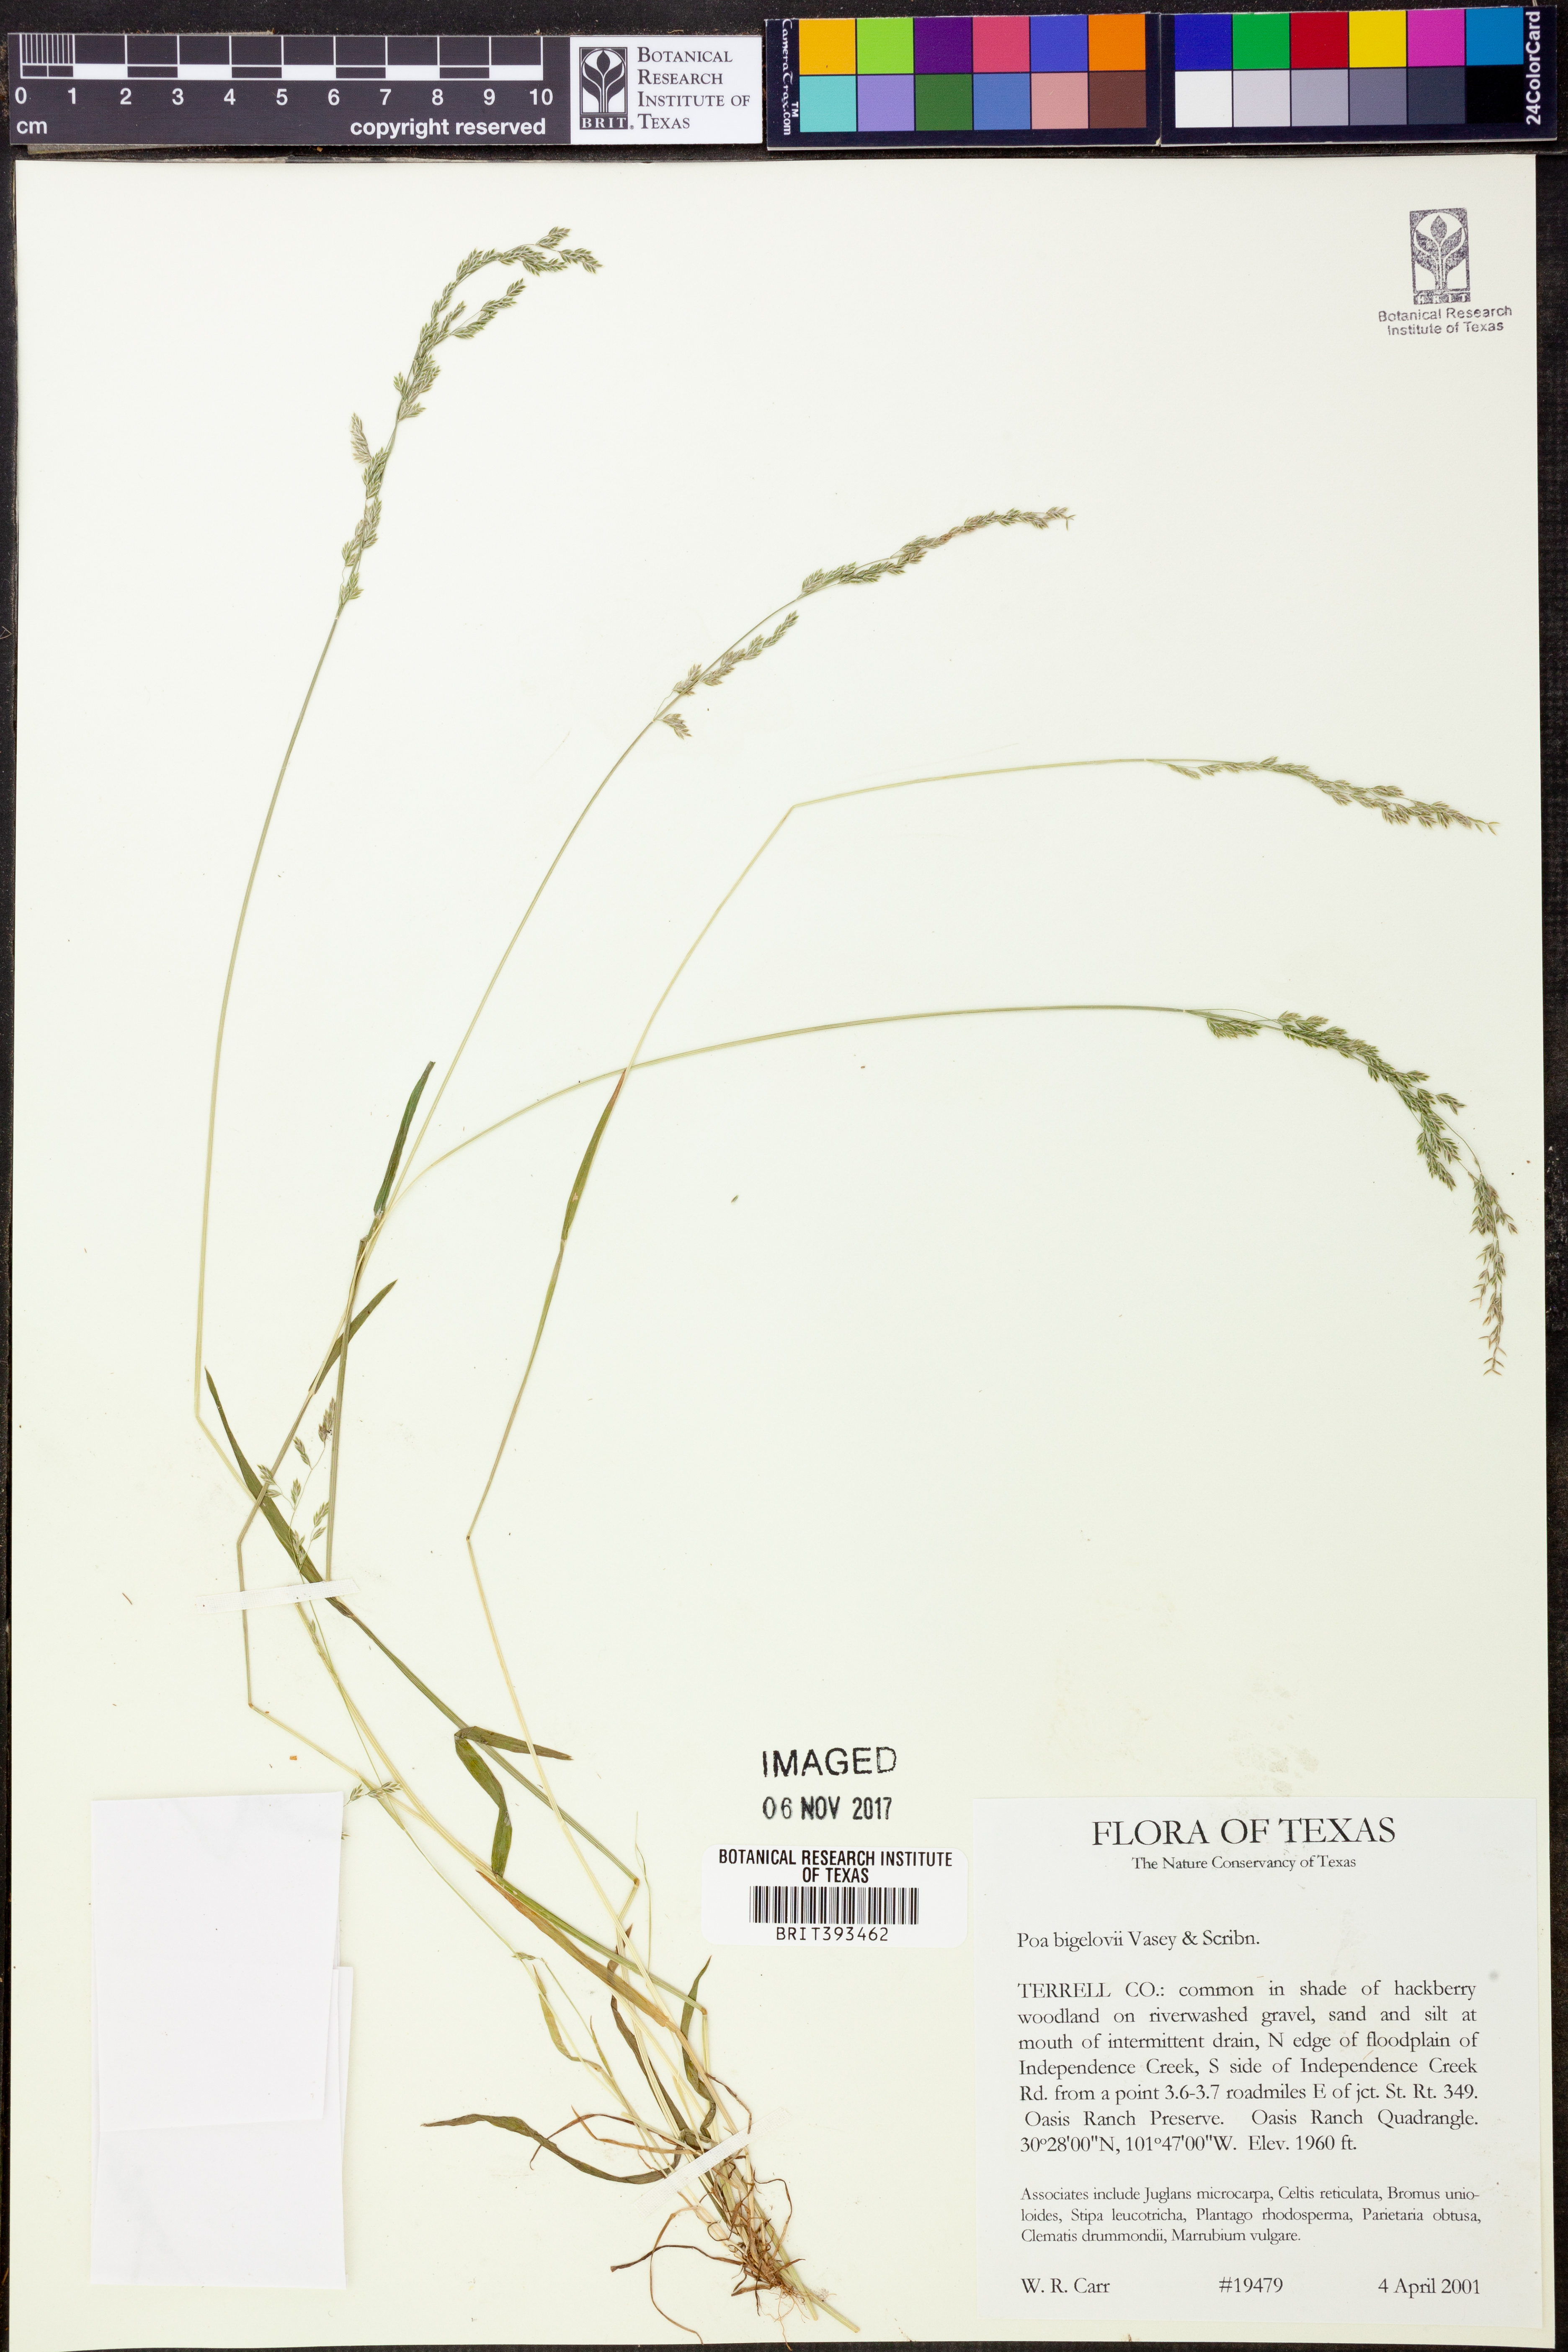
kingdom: Plantae
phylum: Tracheophyta
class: Liliopsida
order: Poales
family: Poaceae
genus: Poa
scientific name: Poa bigelovii
